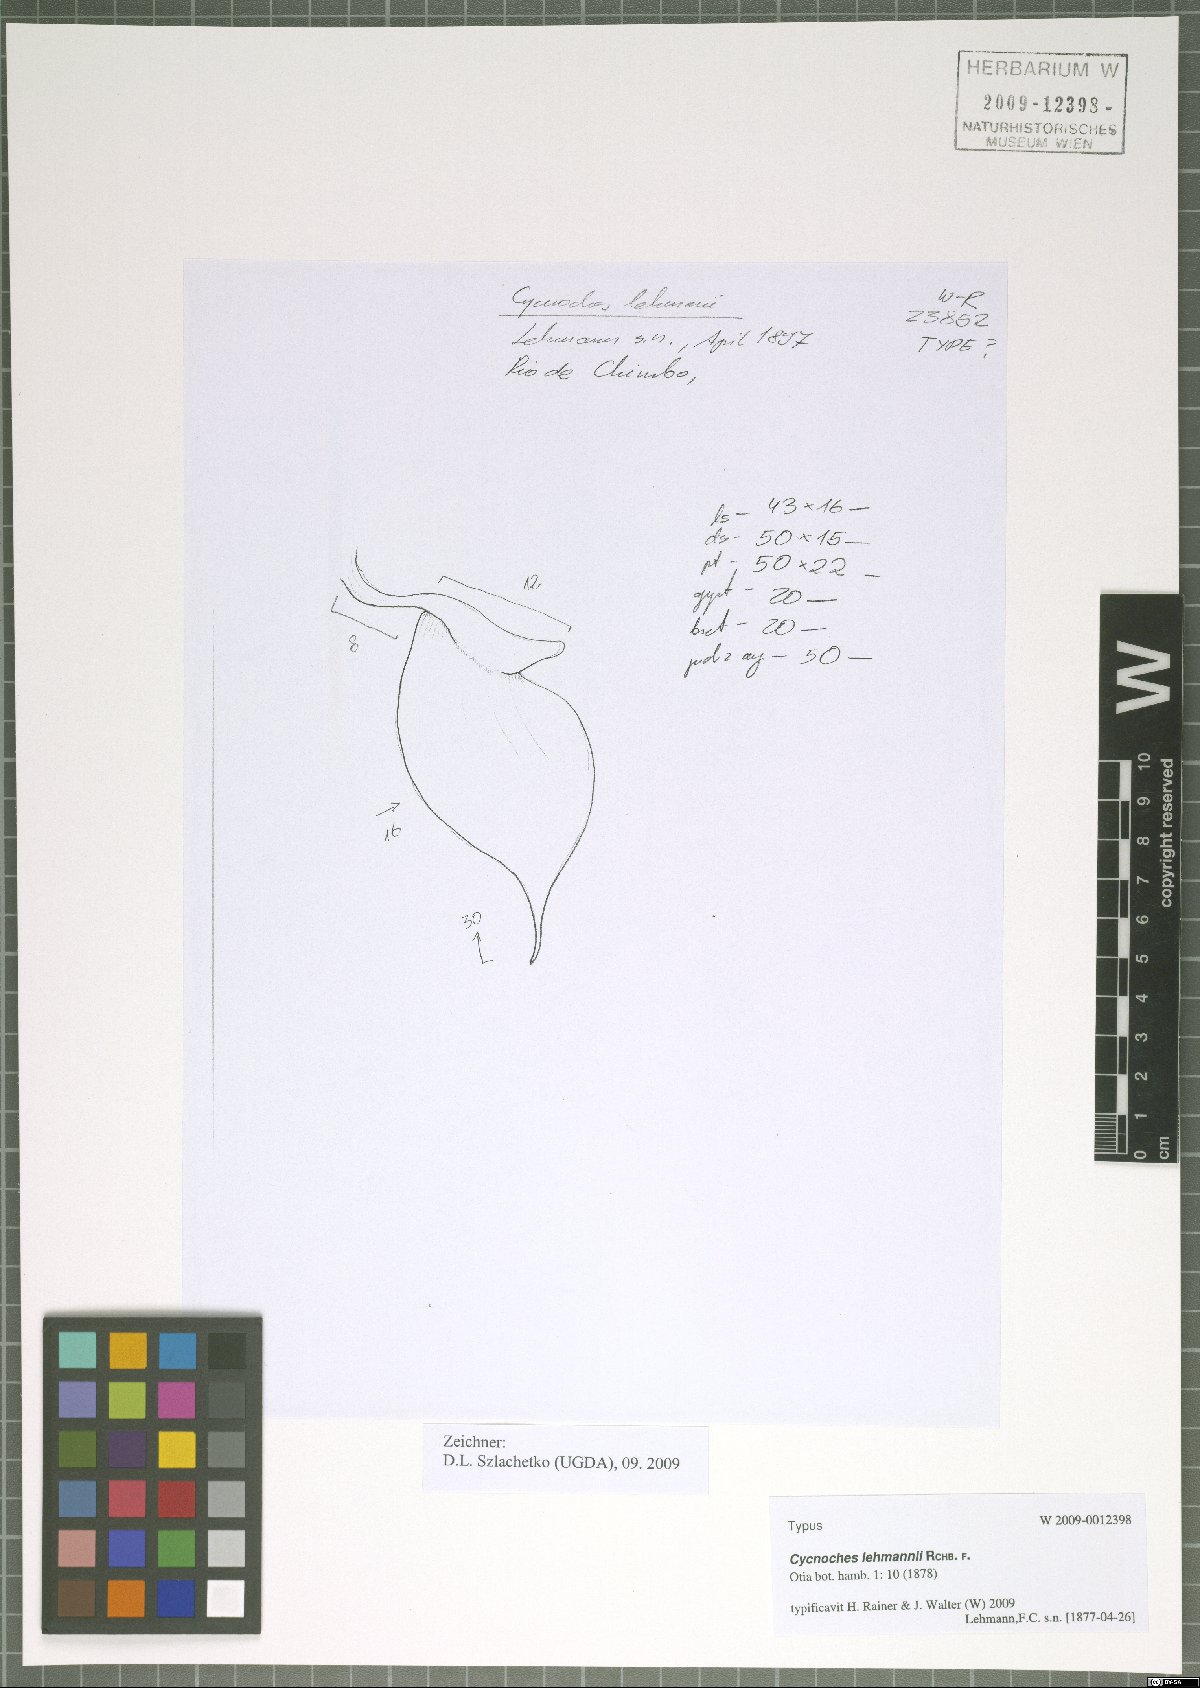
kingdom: Plantae
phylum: Tracheophyta
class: Liliopsida
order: Asparagales
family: Orchidaceae
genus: Cycnoches
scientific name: Cycnoches lehmannii
